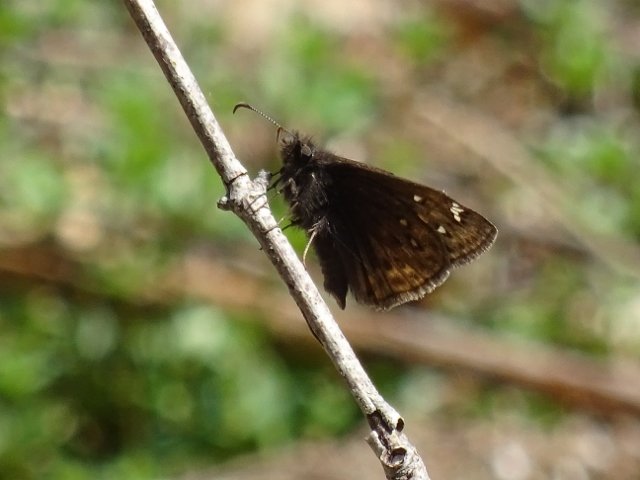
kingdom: Animalia
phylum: Arthropoda
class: Insecta
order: Lepidoptera
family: Hesperiidae
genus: Gesta
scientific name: Gesta
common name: Juvenal's Duskywing
